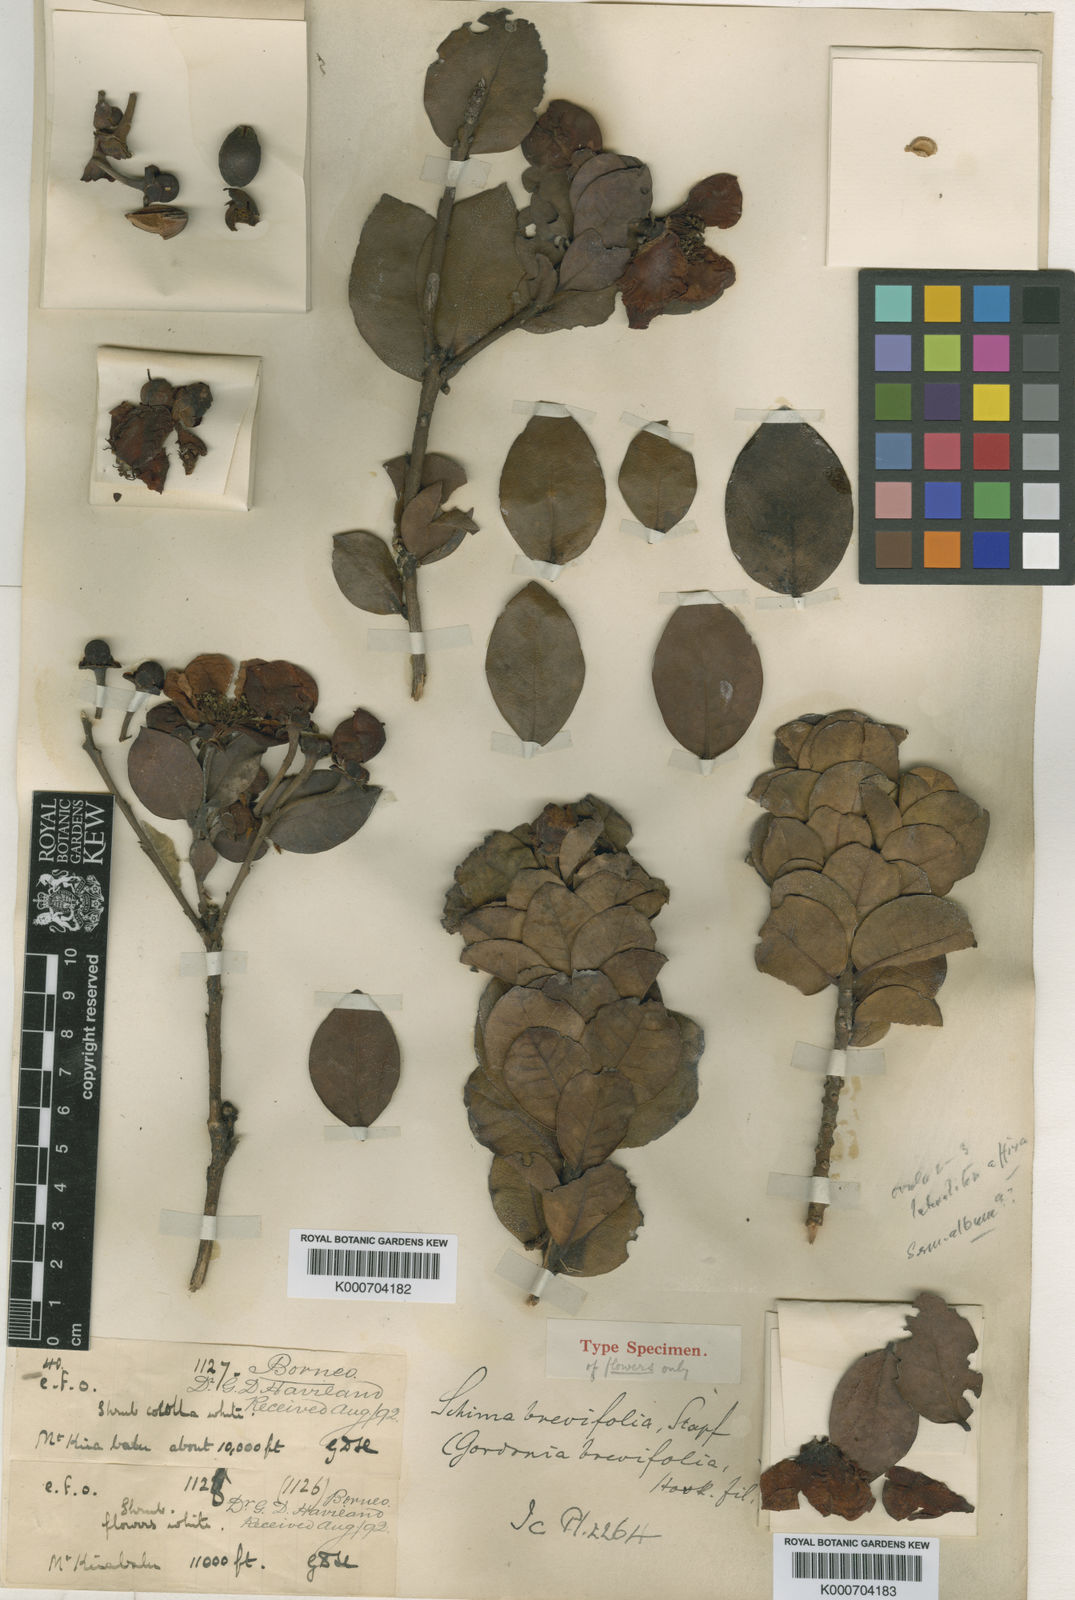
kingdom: Plantae
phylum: Tracheophyta
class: Magnoliopsida
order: Ericales
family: Theaceae
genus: Schima
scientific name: Schima brevifolia
